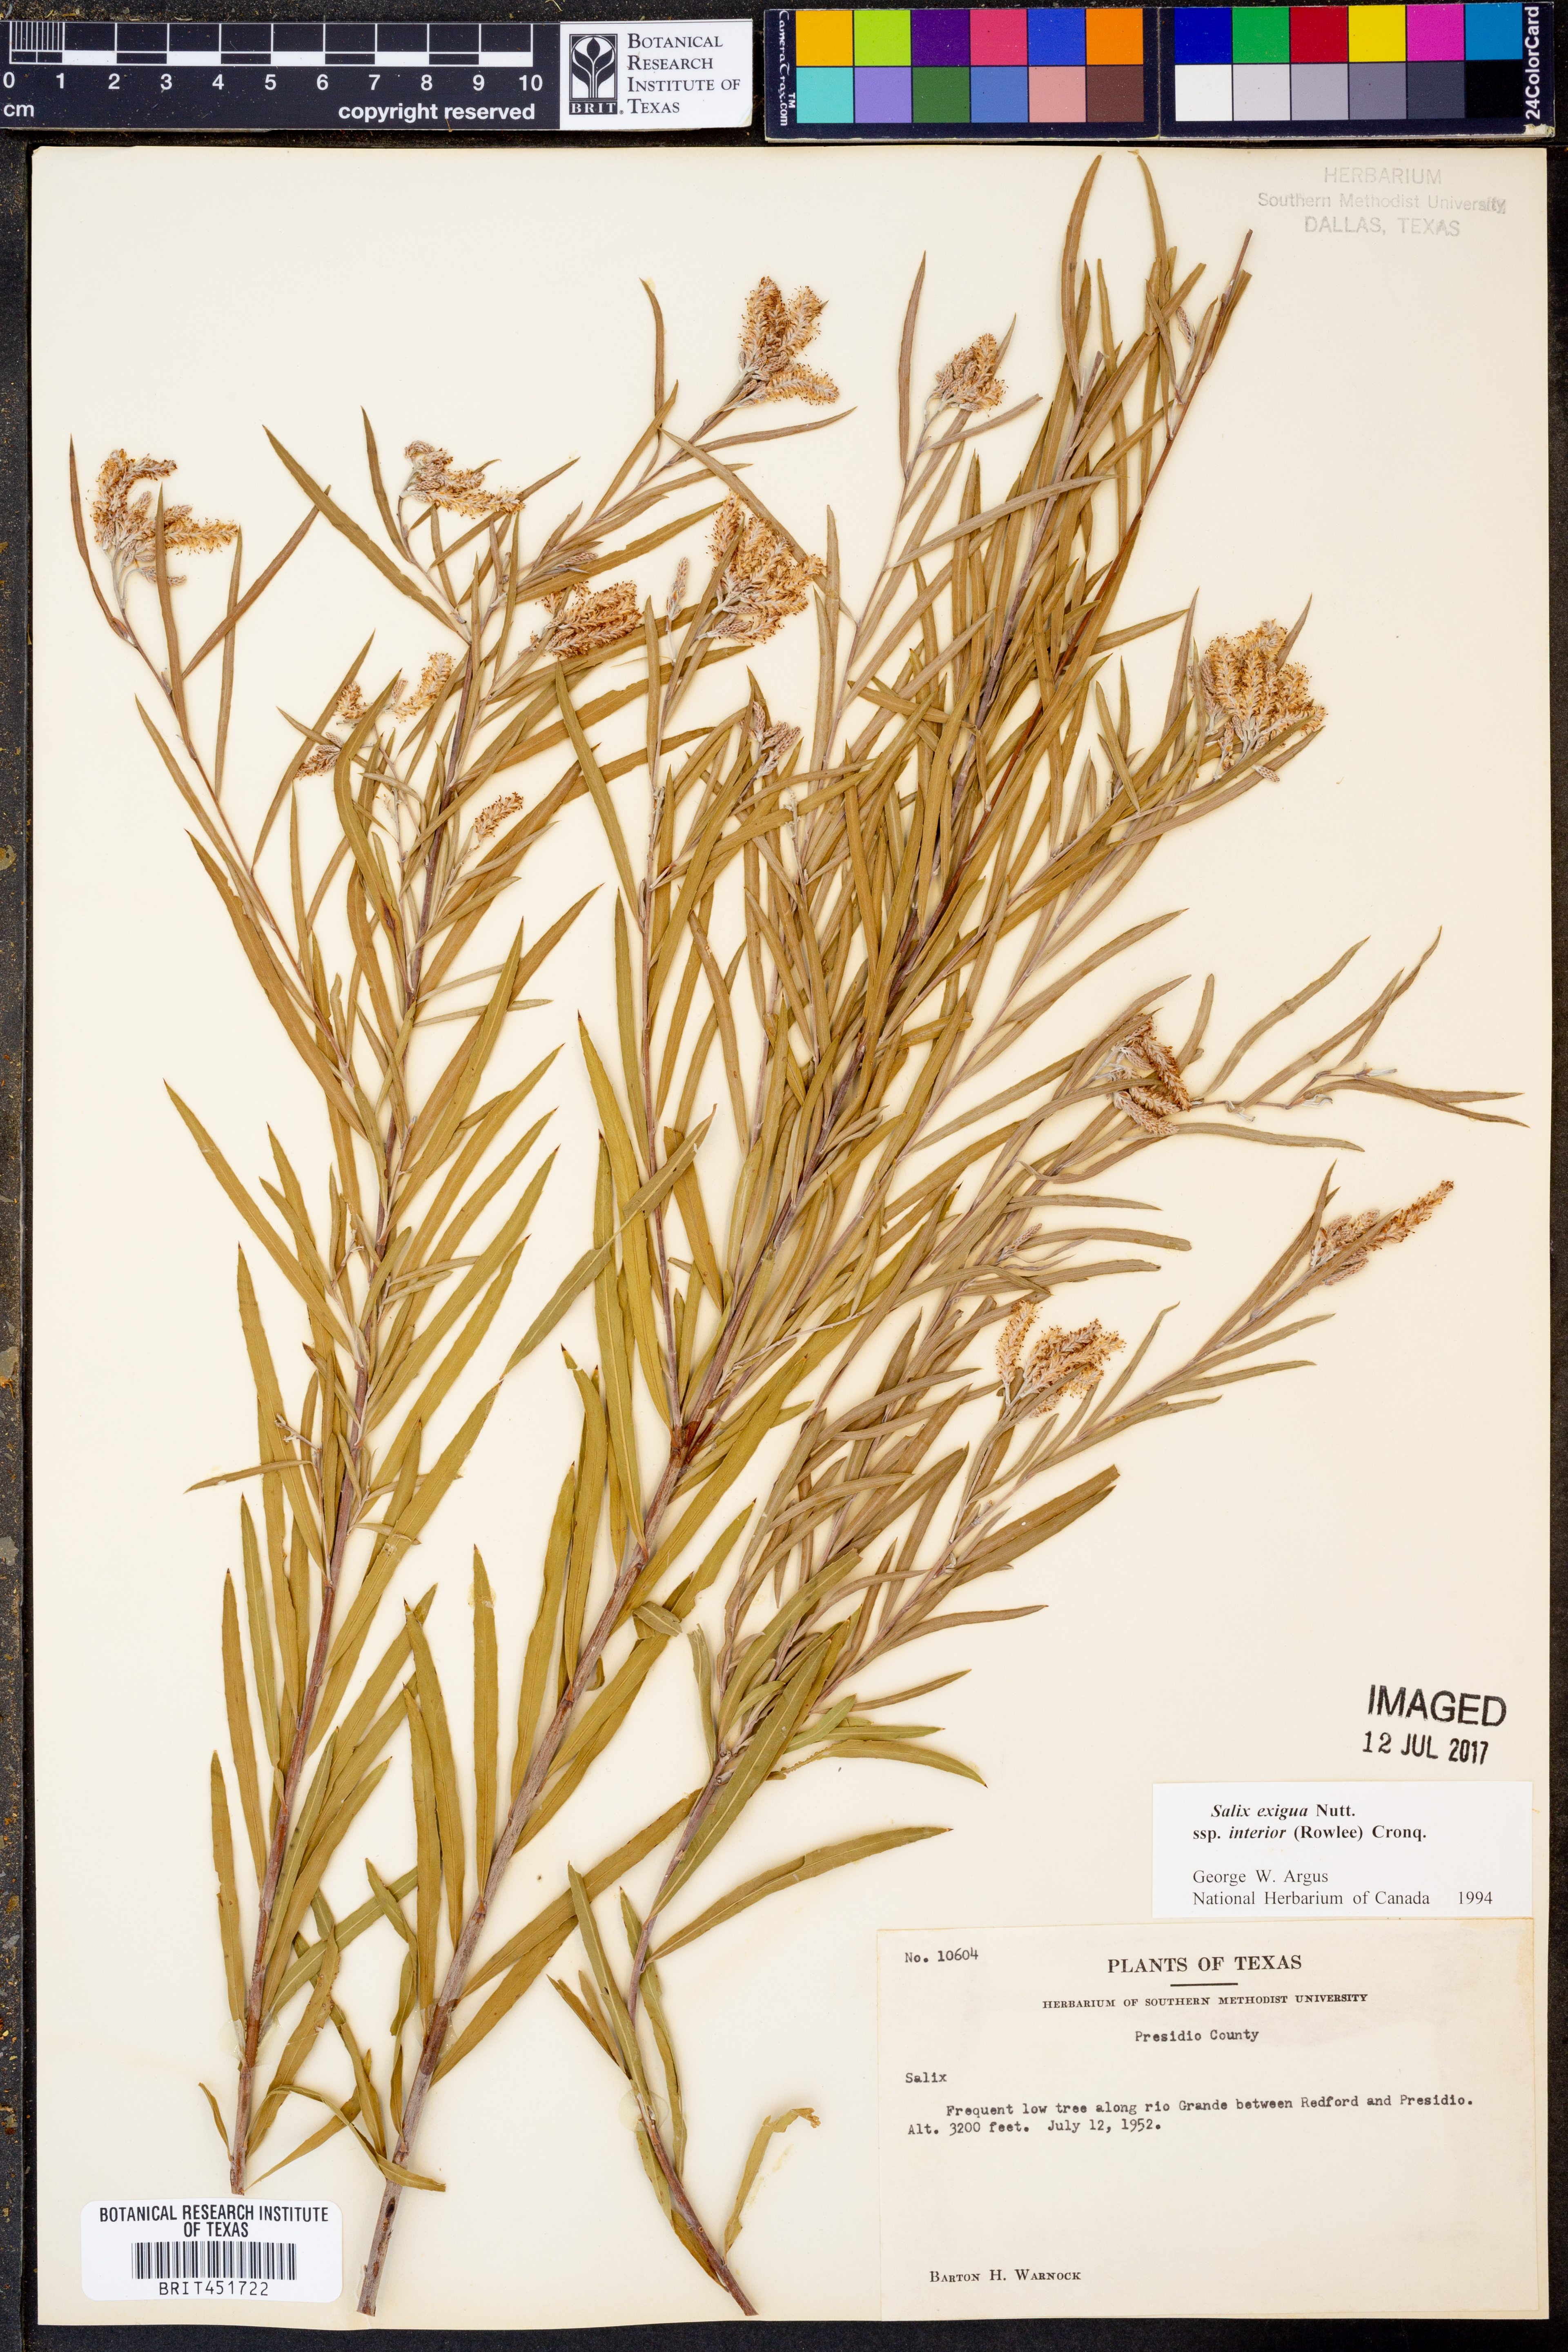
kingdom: Plantae
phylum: Tracheophyta
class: Magnoliopsida
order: Malpighiales
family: Salicaceae
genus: Salix
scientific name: Salix interior
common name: Sandbar willow
